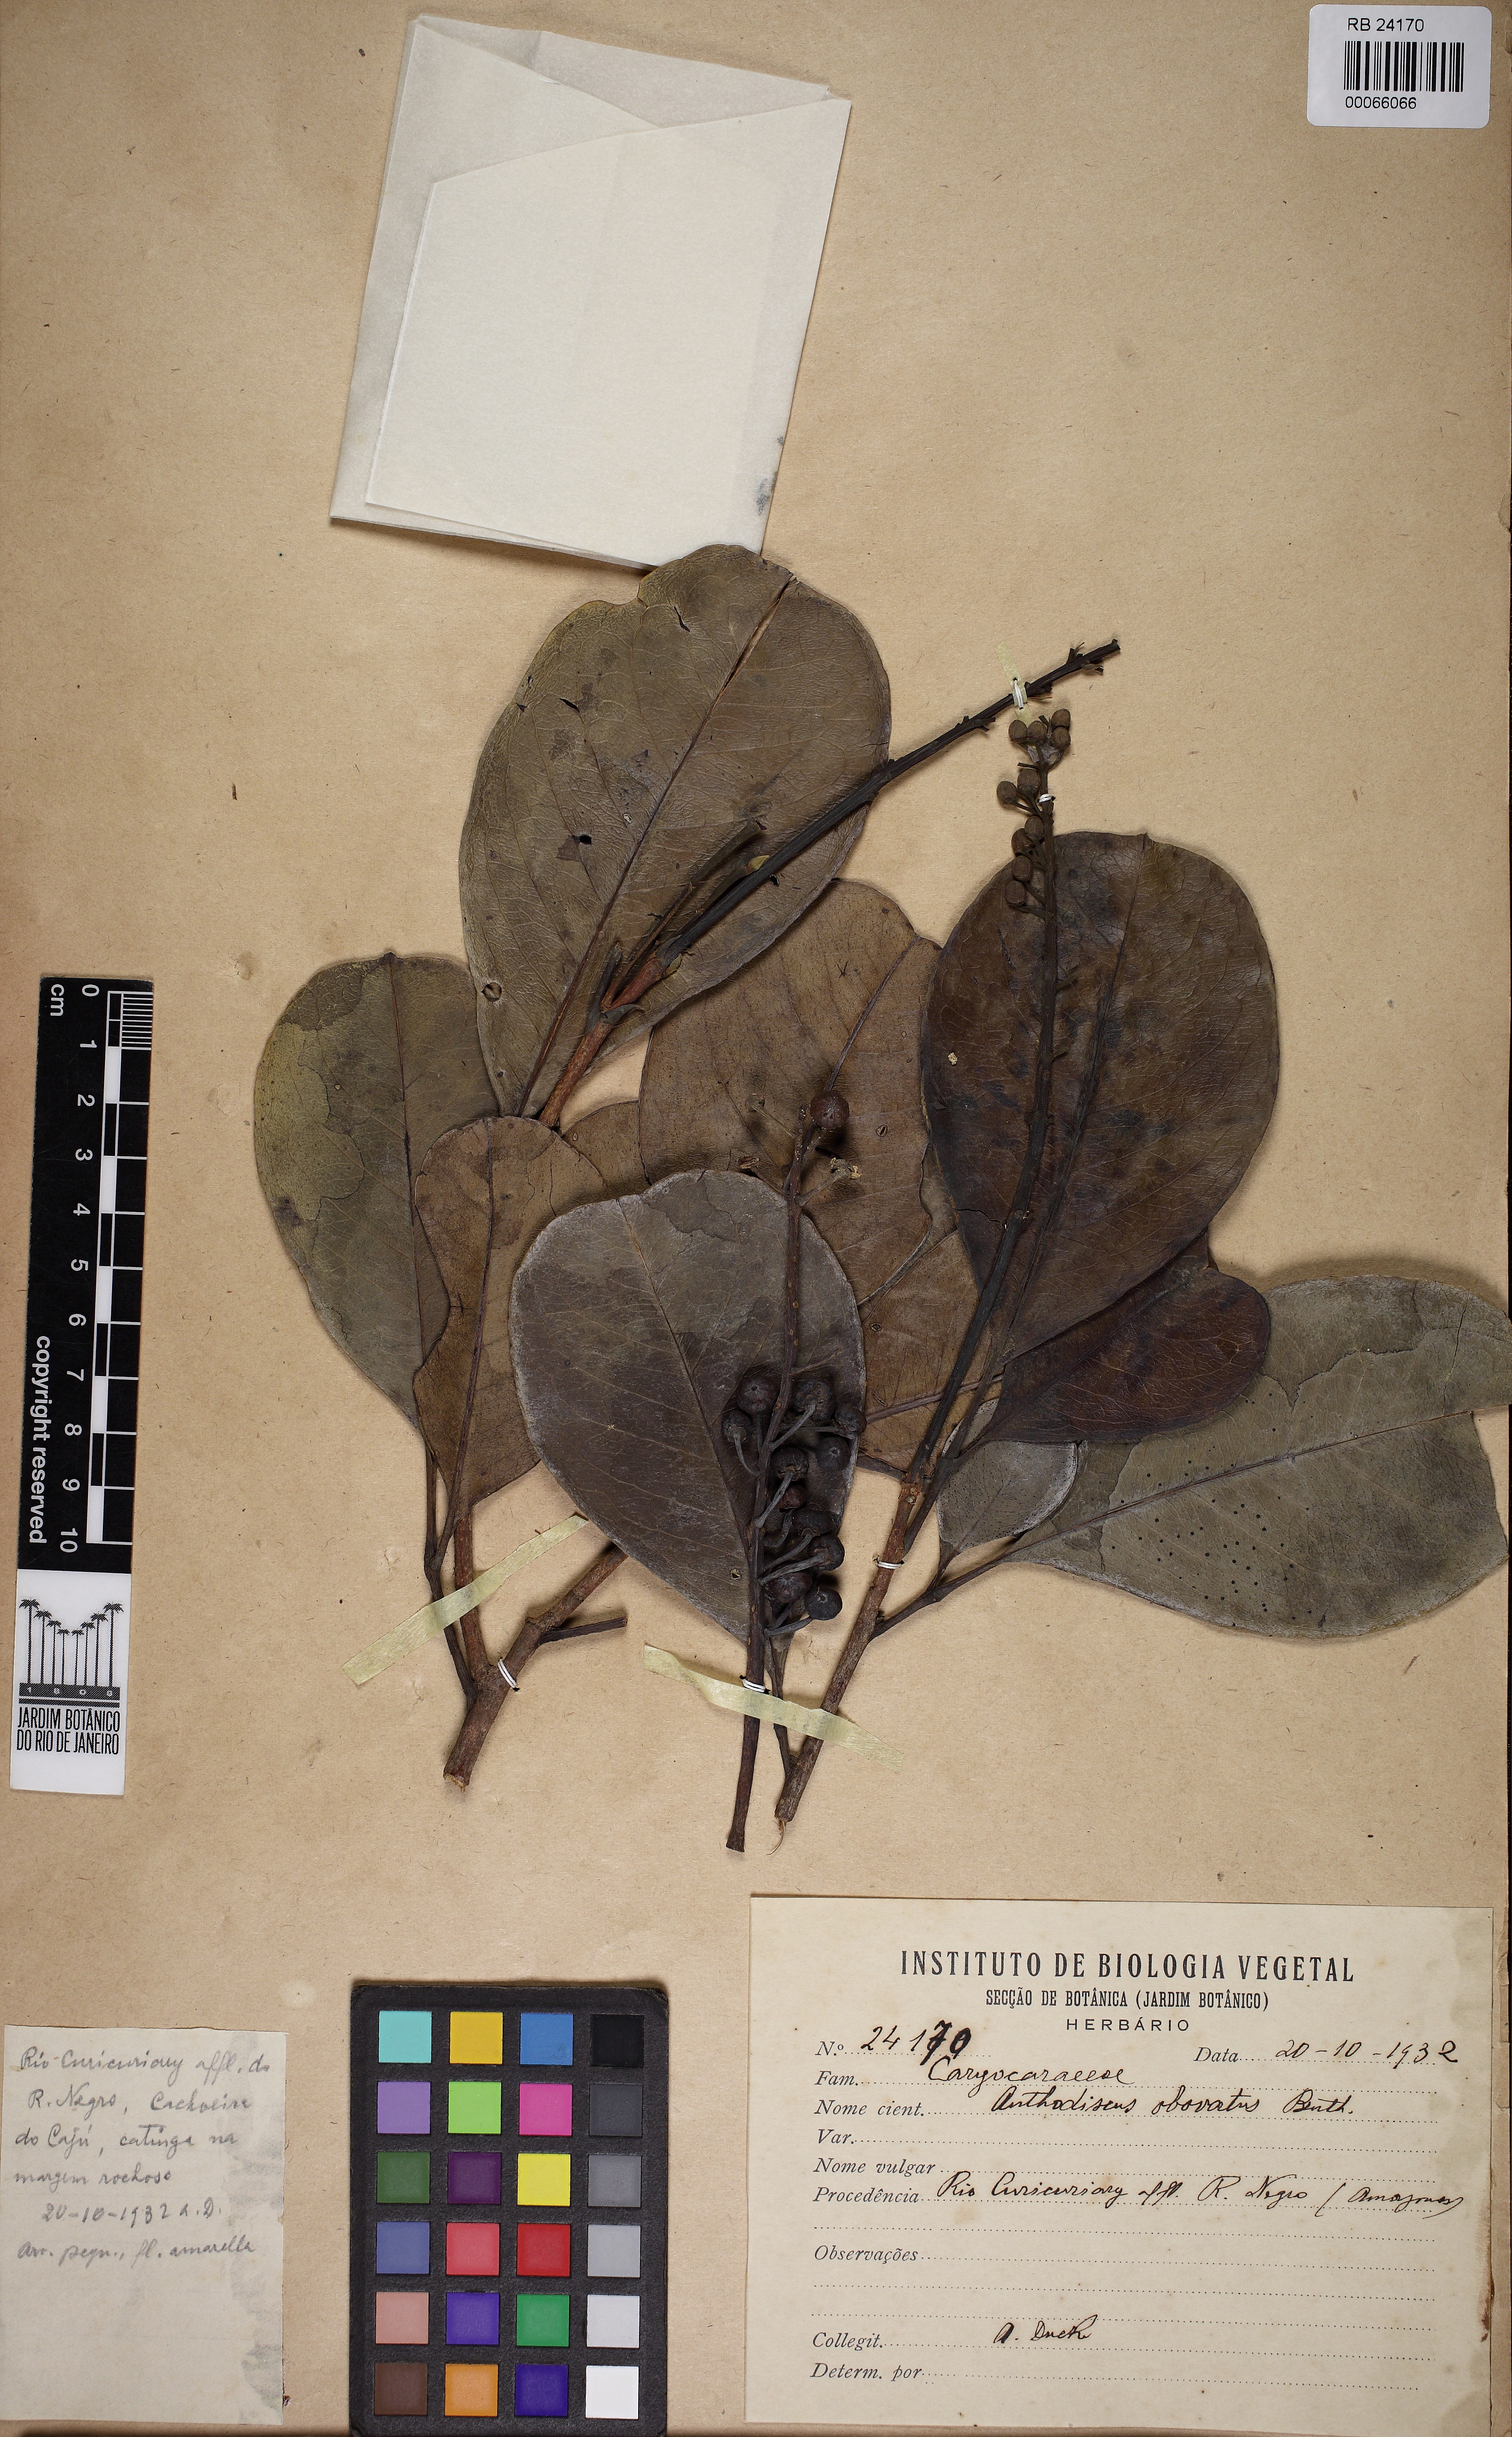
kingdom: Plantae
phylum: Tracheophyta
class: Magnoliopsida
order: Malpighiales
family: Caryocaraceae
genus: Anthodiscus
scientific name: Anthodiscus obovatus
